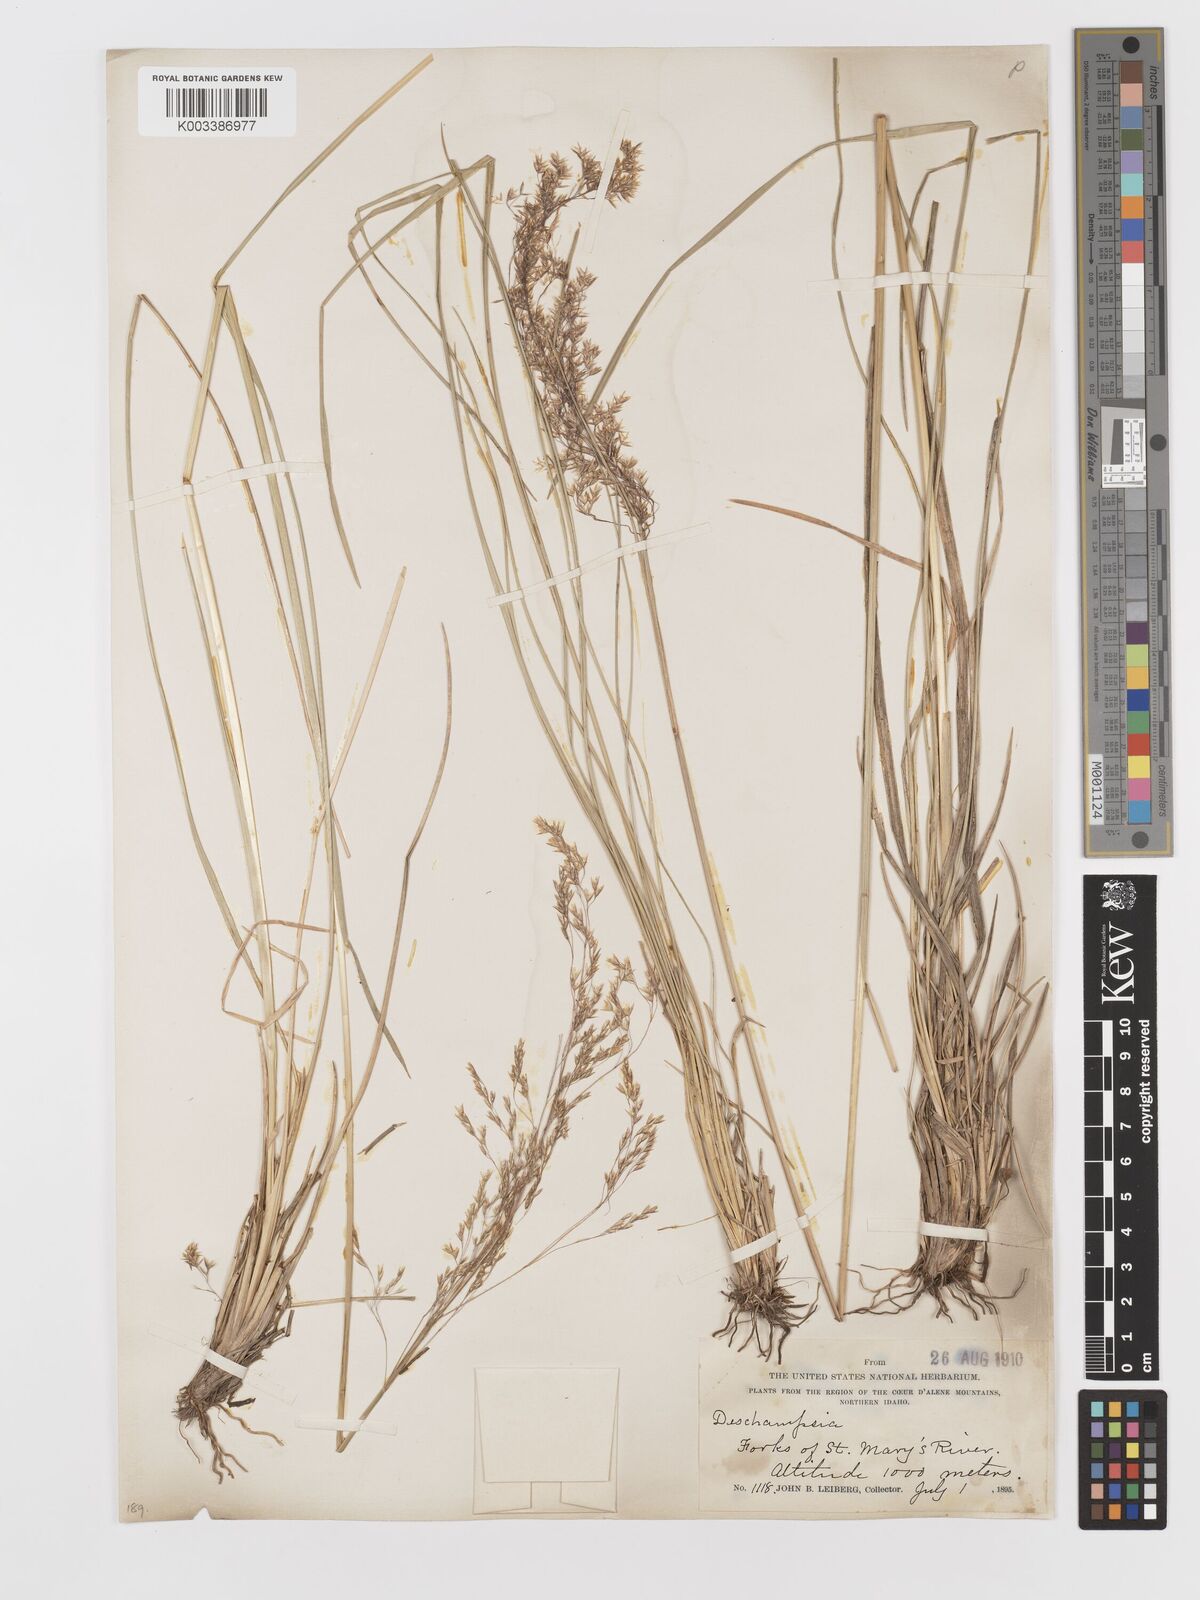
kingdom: Plantae
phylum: Tracheophyta
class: Liliopsida
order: Poales
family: Poaceae
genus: Deschampsia
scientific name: Deschampsia elongata
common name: Slender hairgrass
